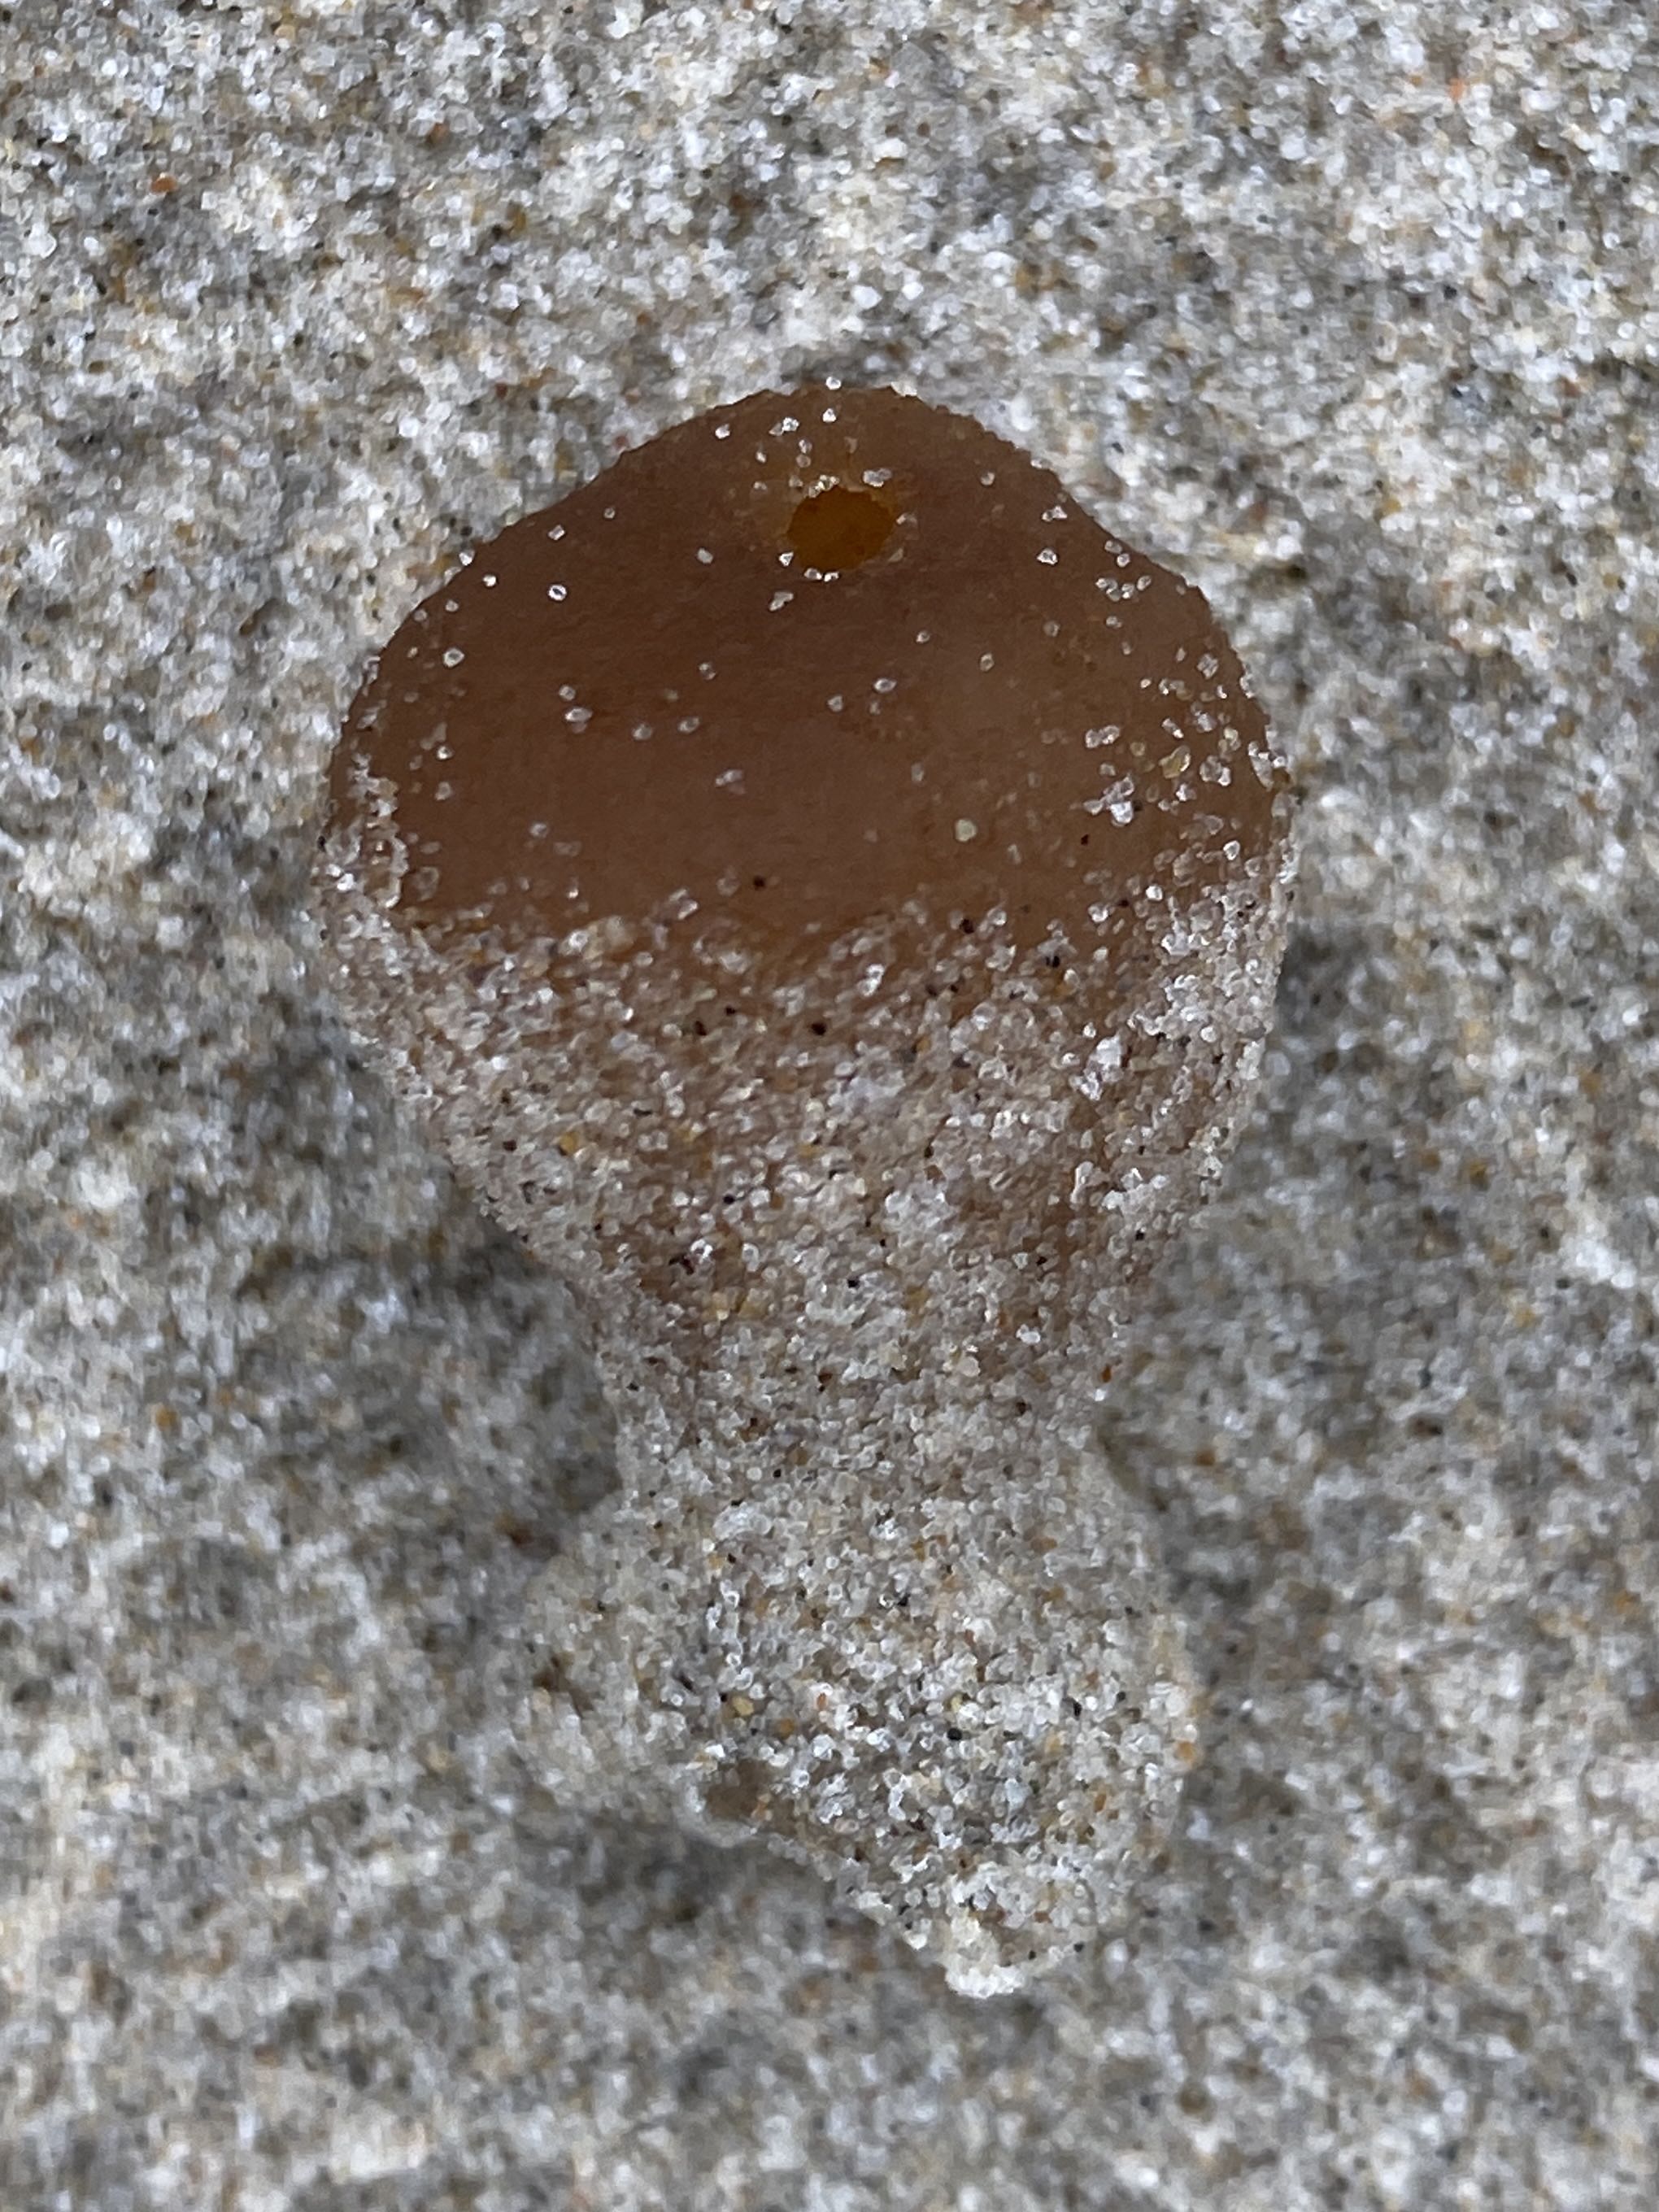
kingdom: Fungi
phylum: Ascomycota
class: Pezizomycetes
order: Pezizales
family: Pyronemataceae
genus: Lamprospora
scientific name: Lamprospora ammophila
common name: klit-bægersvamp
